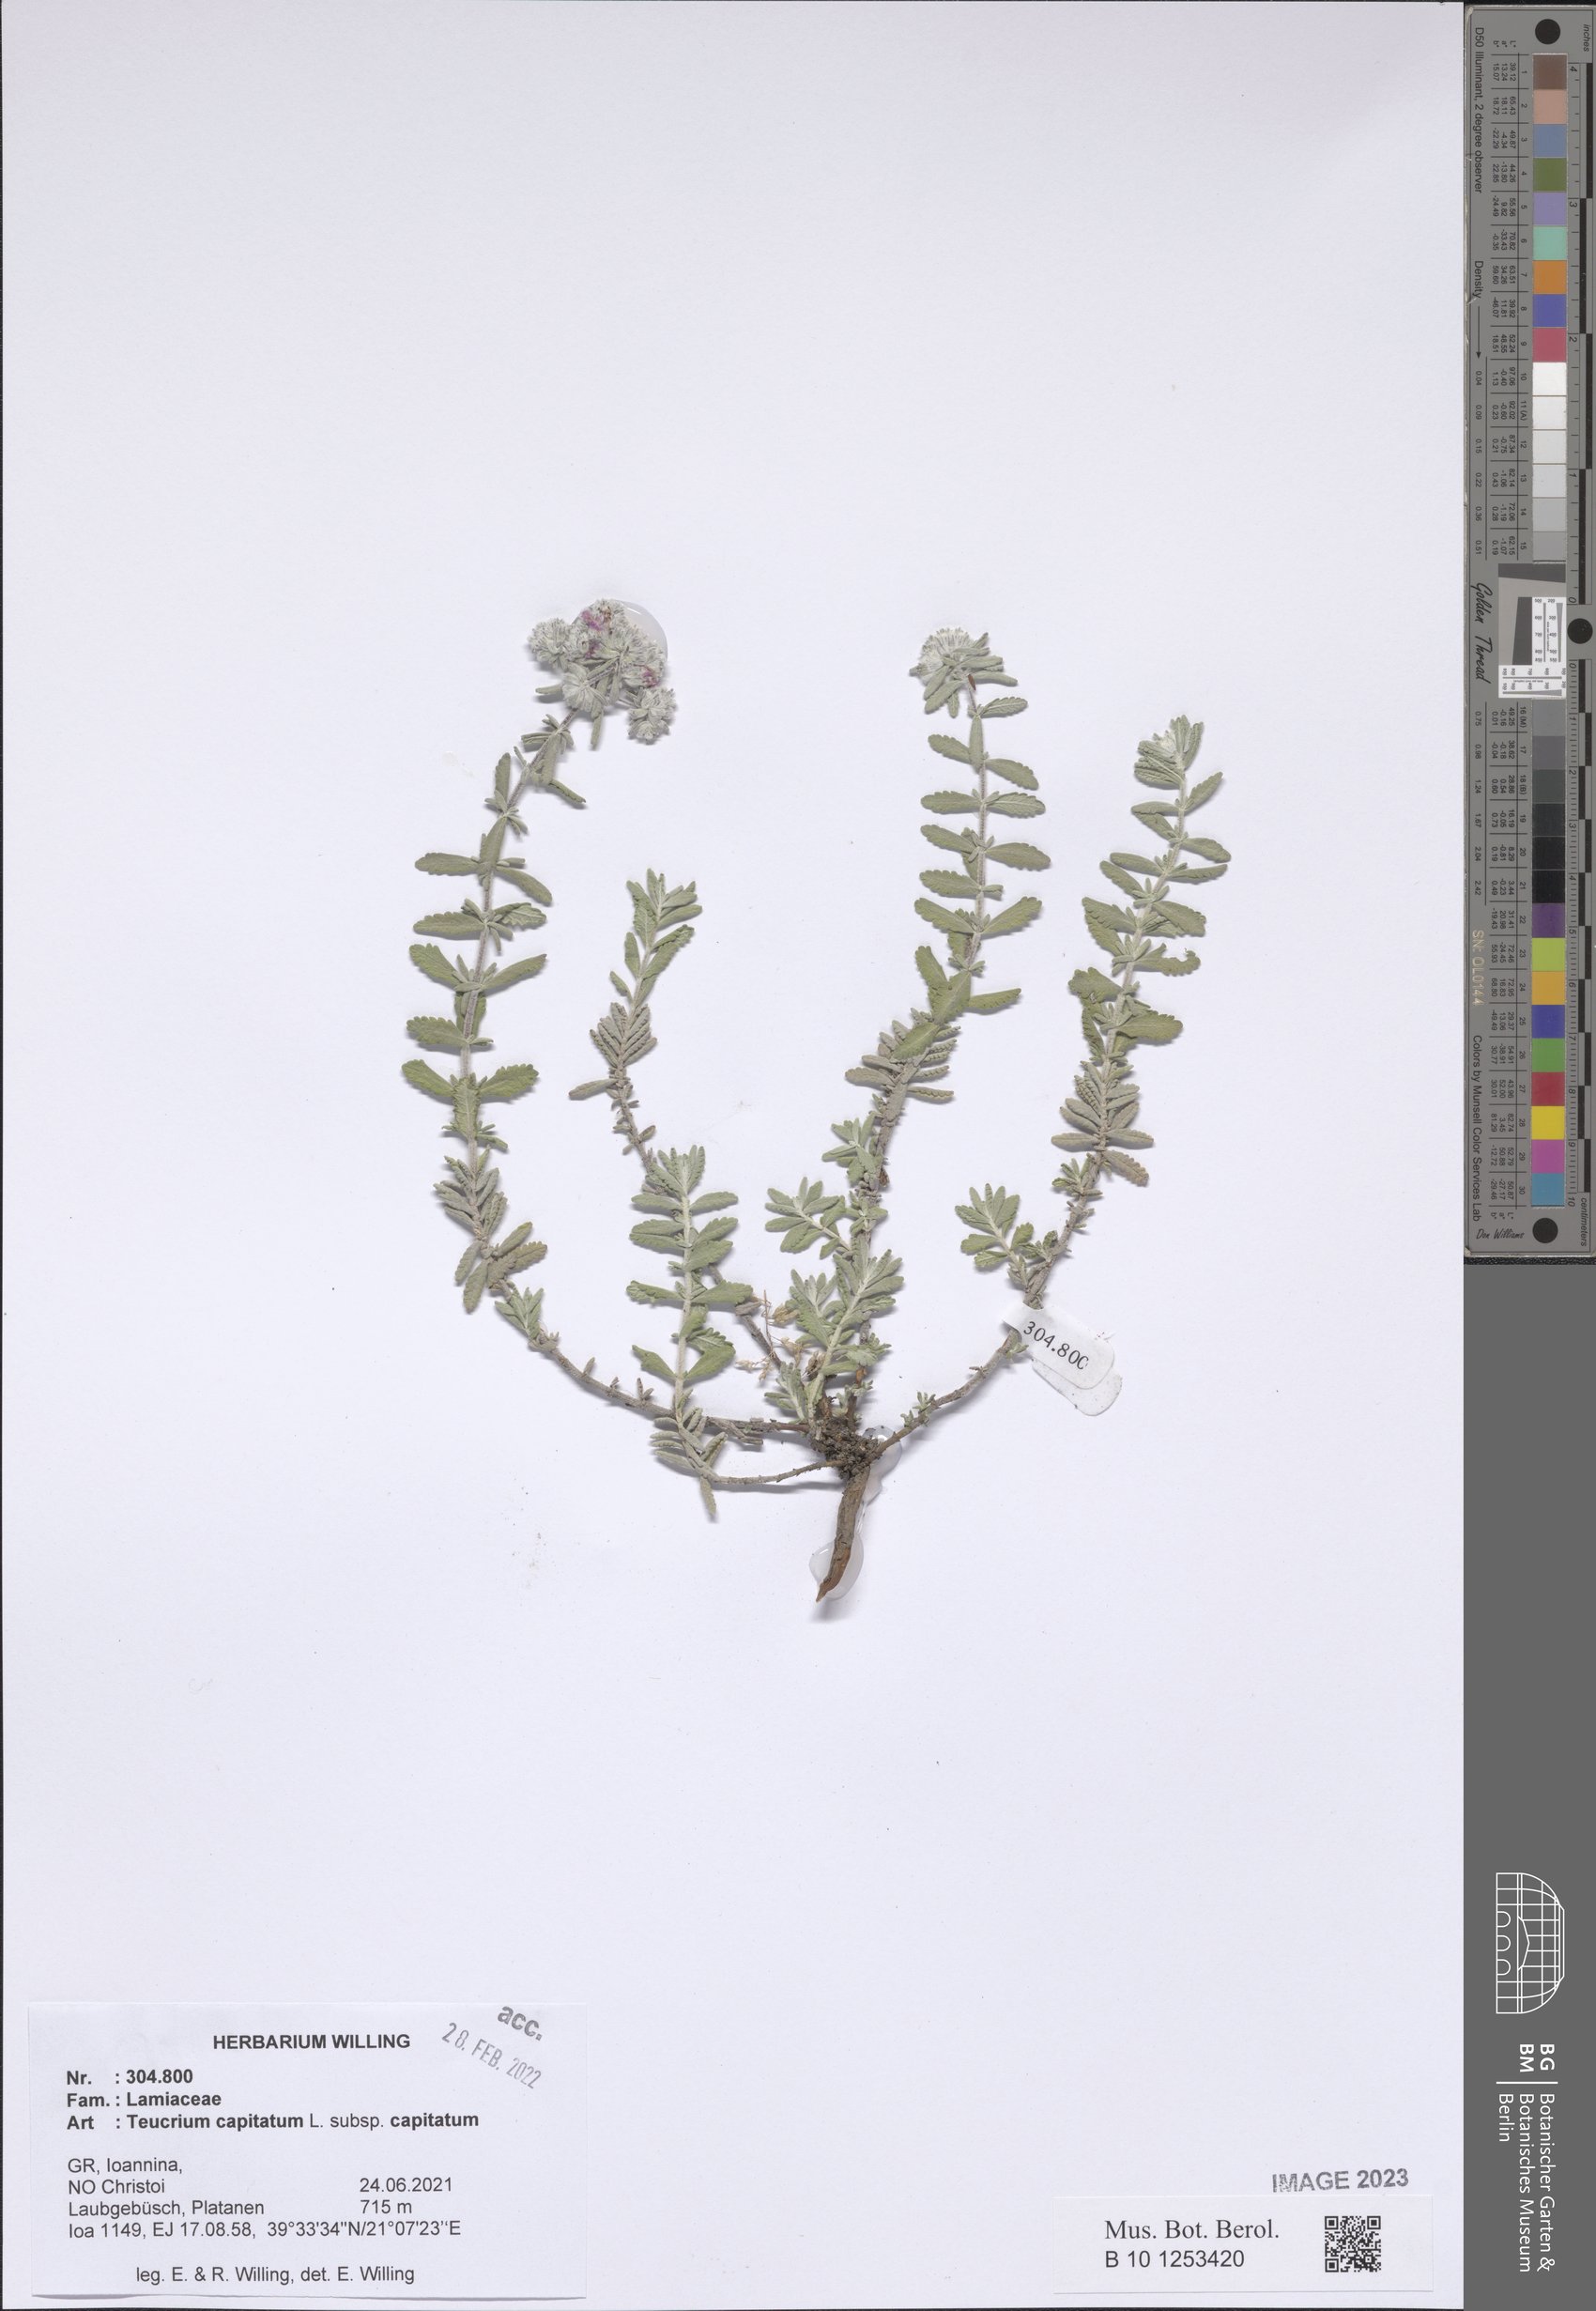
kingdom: Plantae
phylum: Tracheophyta
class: Magnoliopsida
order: Lamiales
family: Lamiaceae
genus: Teucrium
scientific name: Teucrium capitatum
